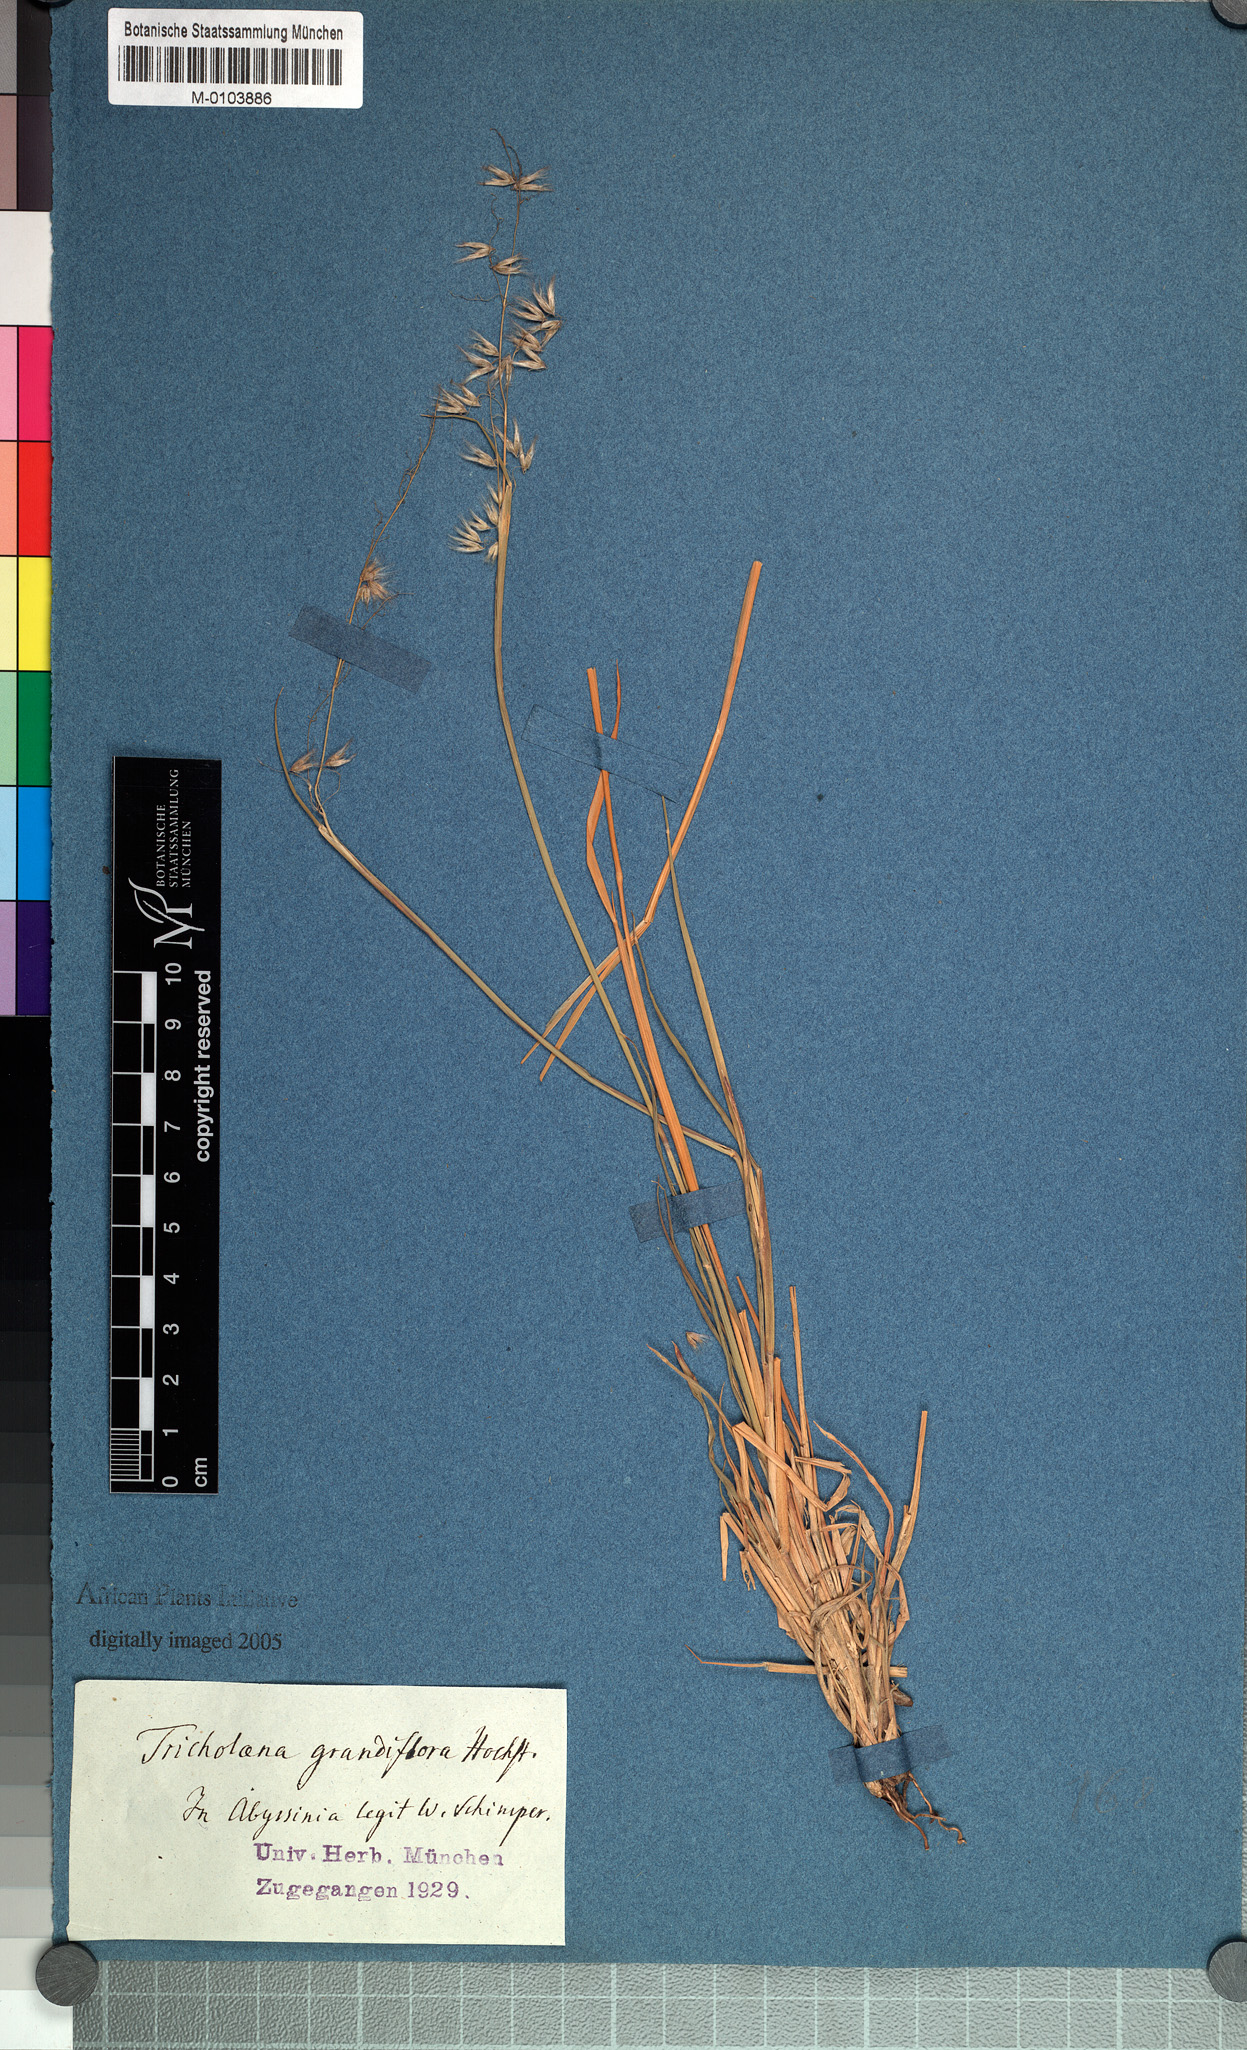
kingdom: Plantae
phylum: Tracheophyta
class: Liliopsida
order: Poales
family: Poaceae
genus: Melinis
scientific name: Melinis repens
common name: Rose natal grass
